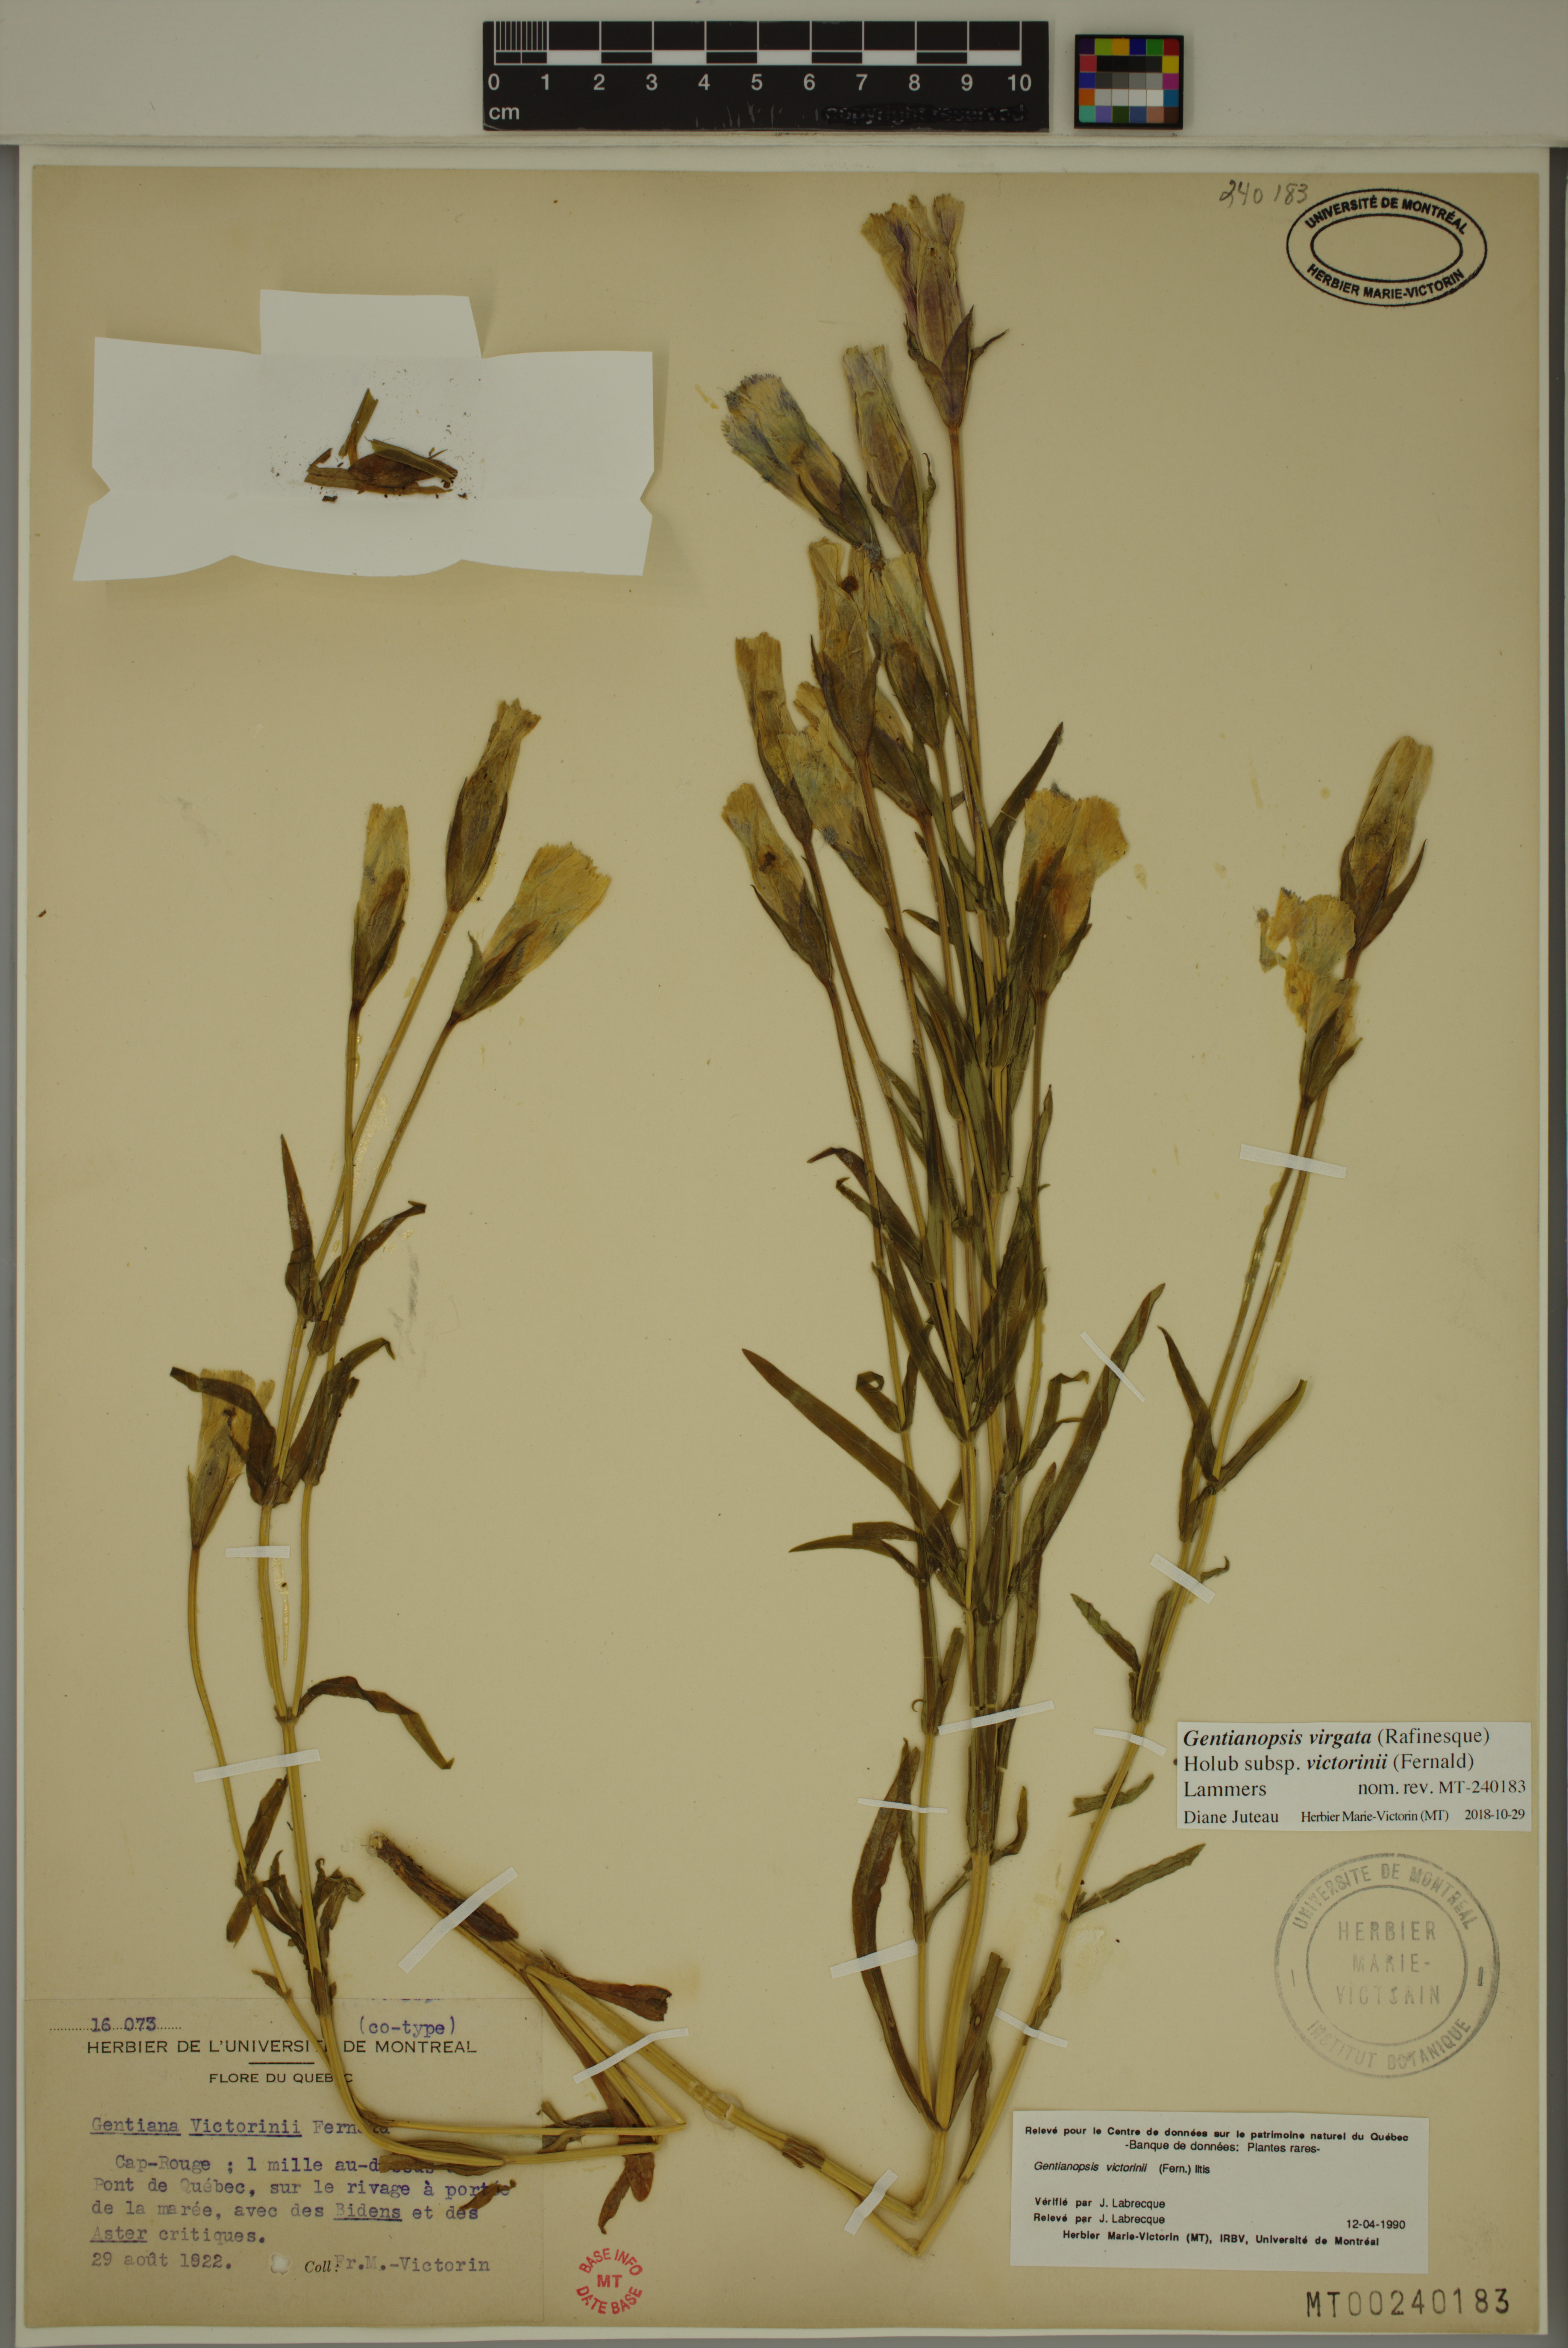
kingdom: Plantae
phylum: Tracheophyta
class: Magnoliopsida
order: Gentianales
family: Gentianaceae
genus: Gentianopsis
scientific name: Gentianopsis victorinii
